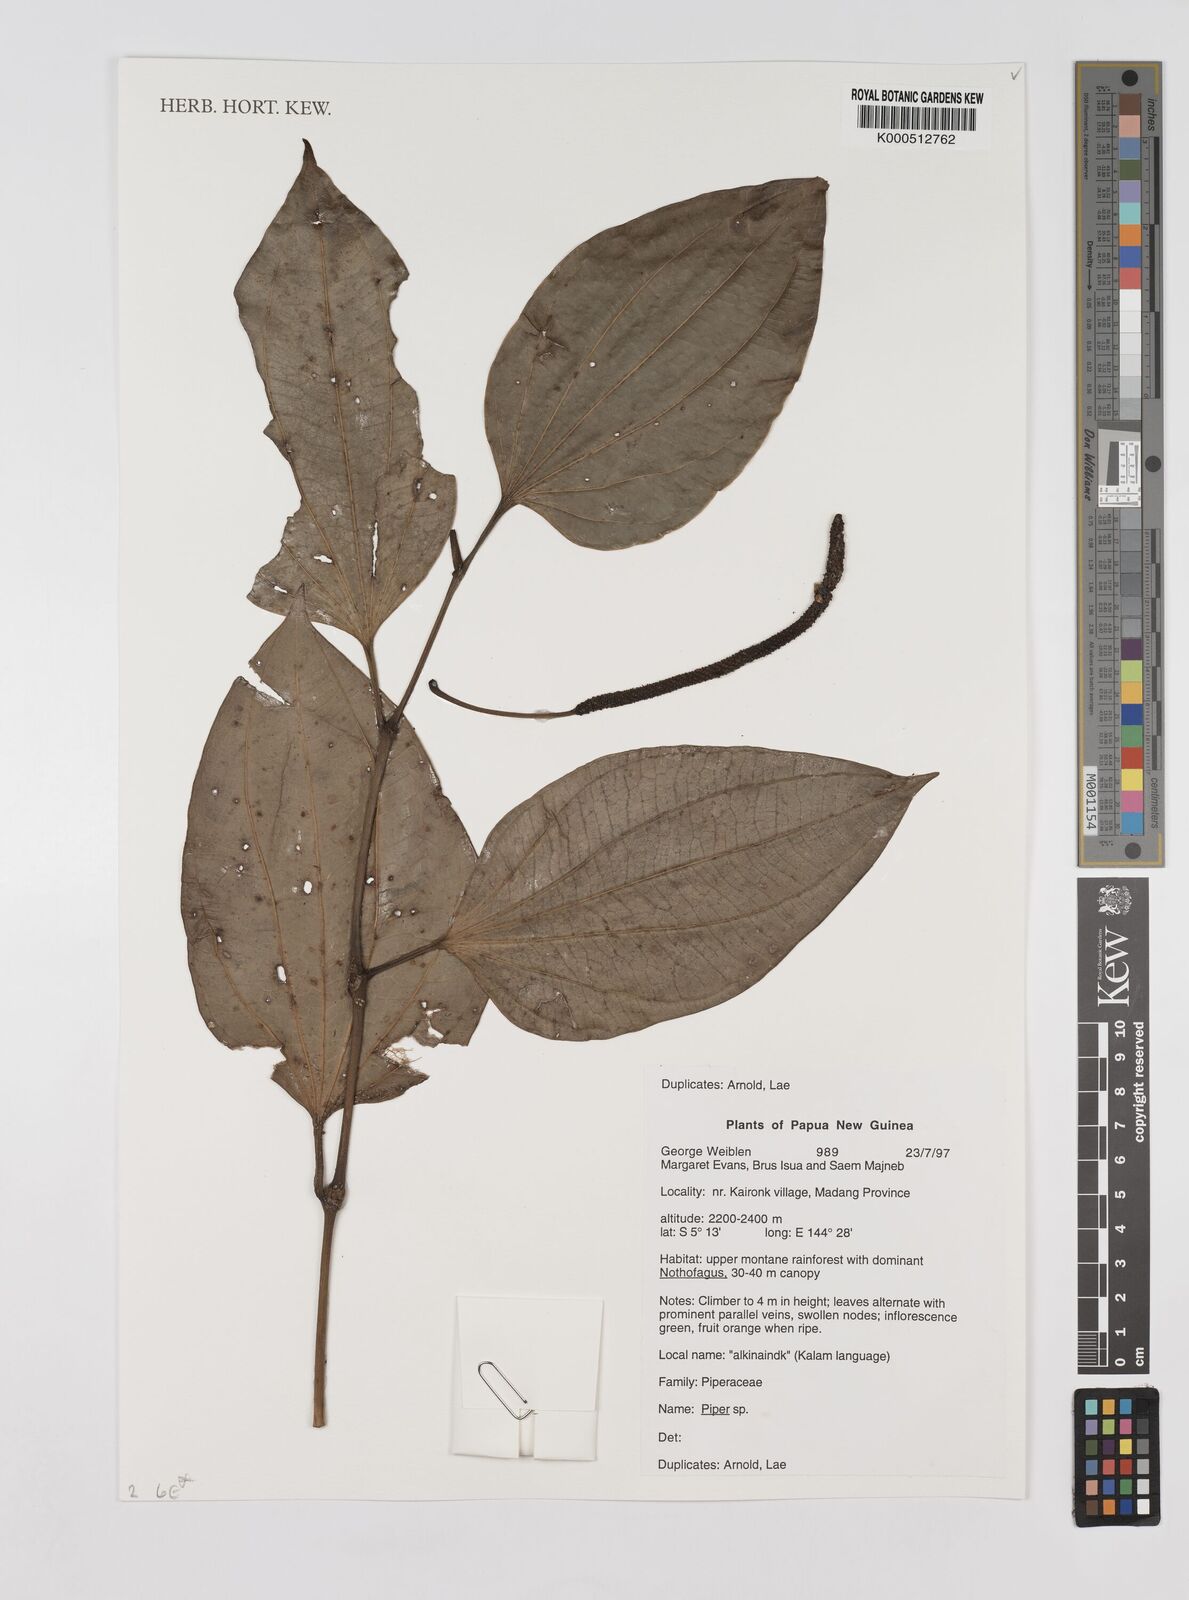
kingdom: Plantae
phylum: Tracheophyta
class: Magnoliopsida
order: Piperales
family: Piperaceae
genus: Piper
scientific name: Piper
